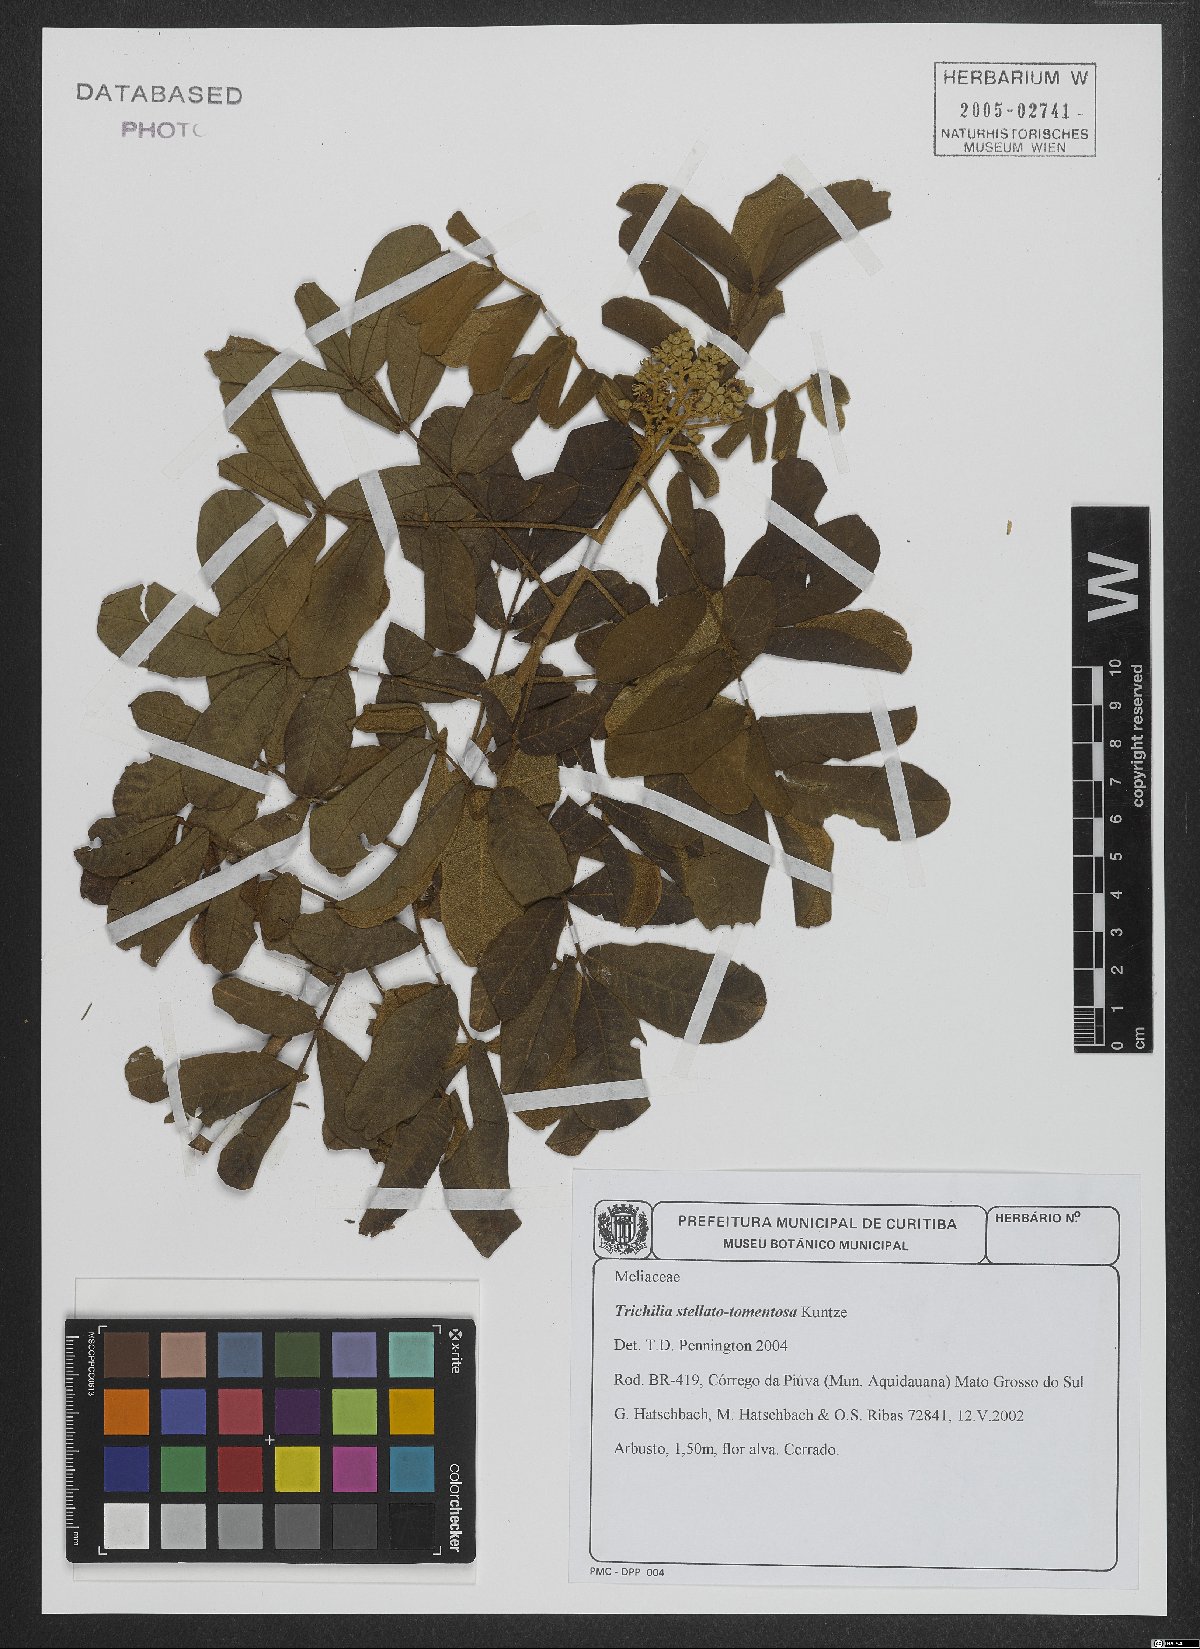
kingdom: Plantae
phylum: Tracheophyta
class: Magnoliopsida
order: Sapindales
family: Meliaceae
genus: Trichilia
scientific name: Trichilia stellatotomentosa
